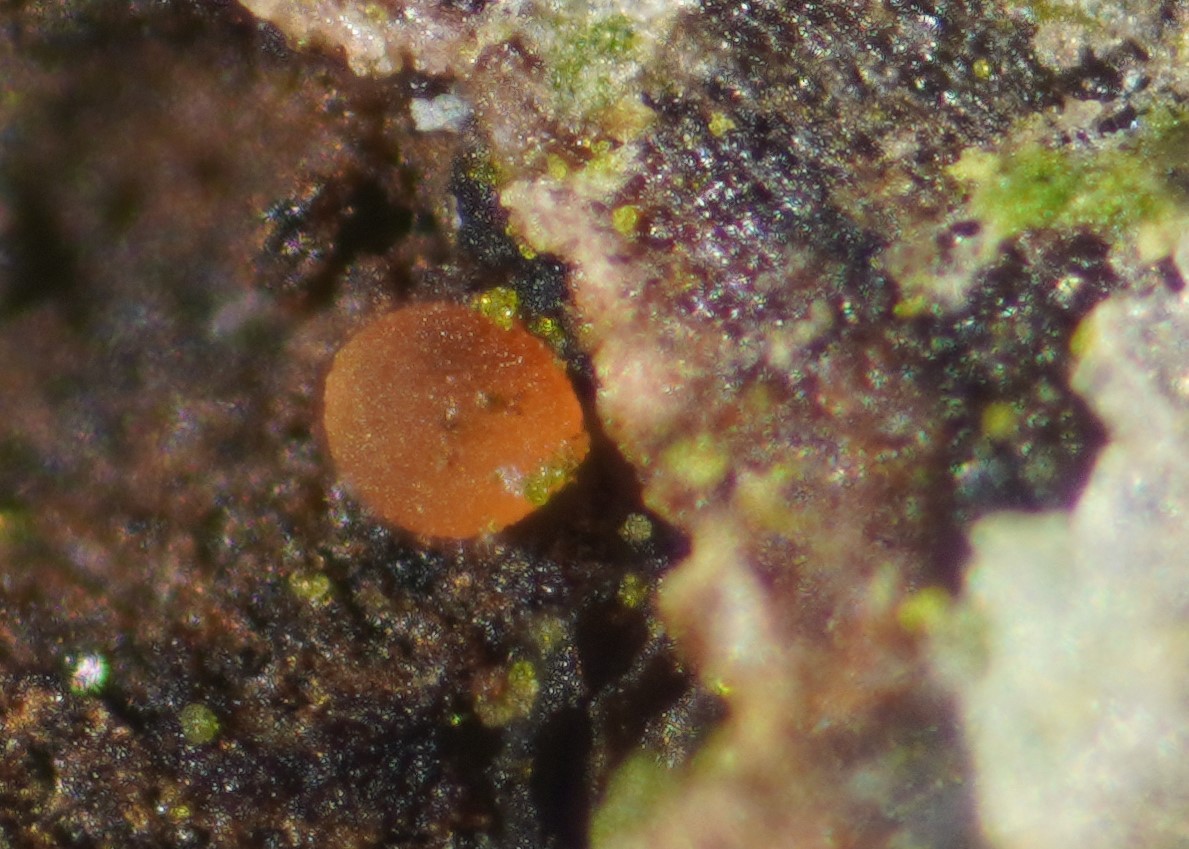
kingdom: Fungi
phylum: Ascomycota
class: Orbiliomycetes
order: Orbiliales
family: Orbiliaceae
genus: Orbilia
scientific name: Orbilia eucalypti
